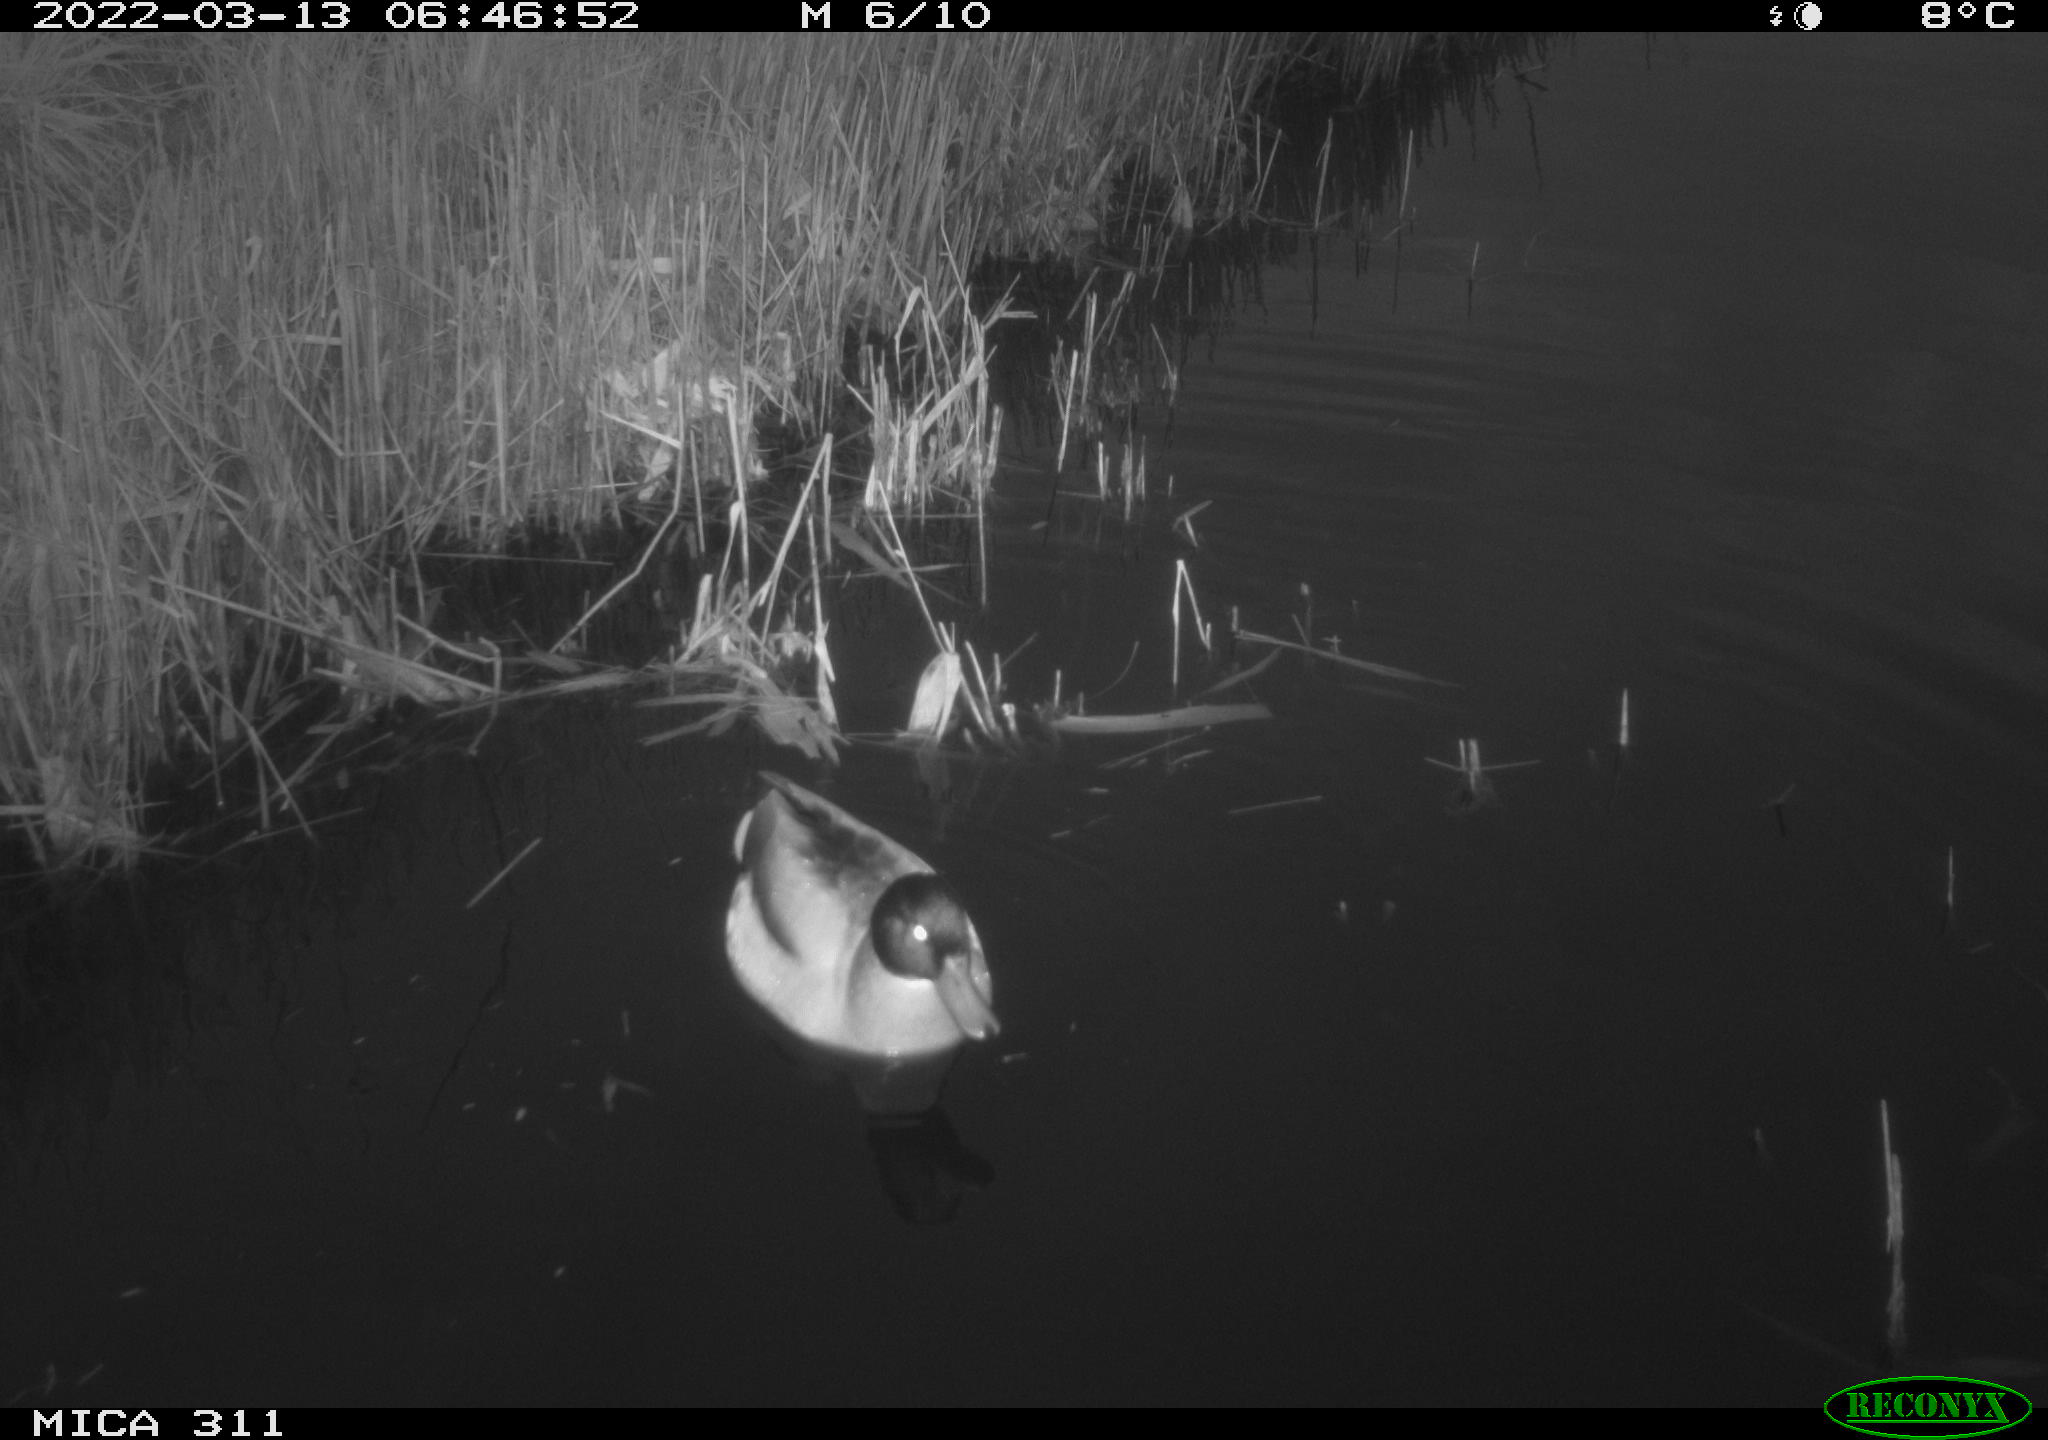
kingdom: Animalia
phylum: Chordata
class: Aves
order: Anseriformes
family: Anatidae
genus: Anas
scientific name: Anas
